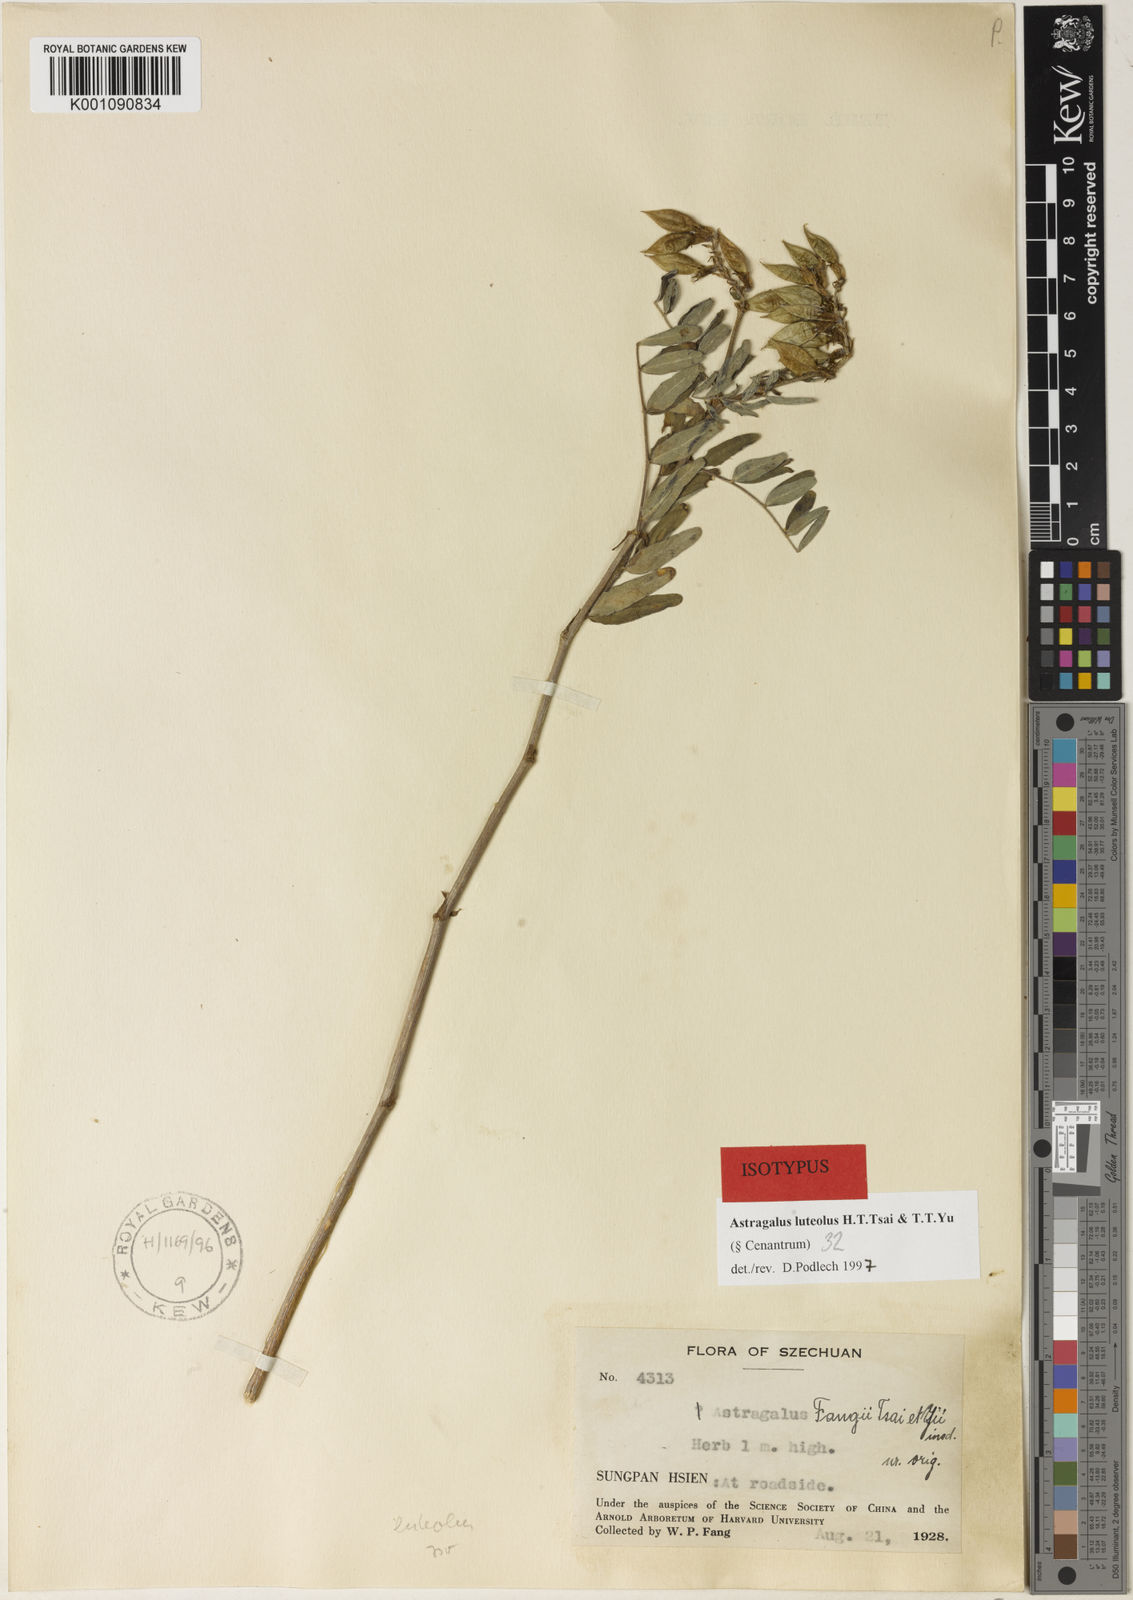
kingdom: Plantae
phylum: Tracheophyta
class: Magnoliopsida
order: Fabales
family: Fabaceae
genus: Astragalus
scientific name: Astragalus
